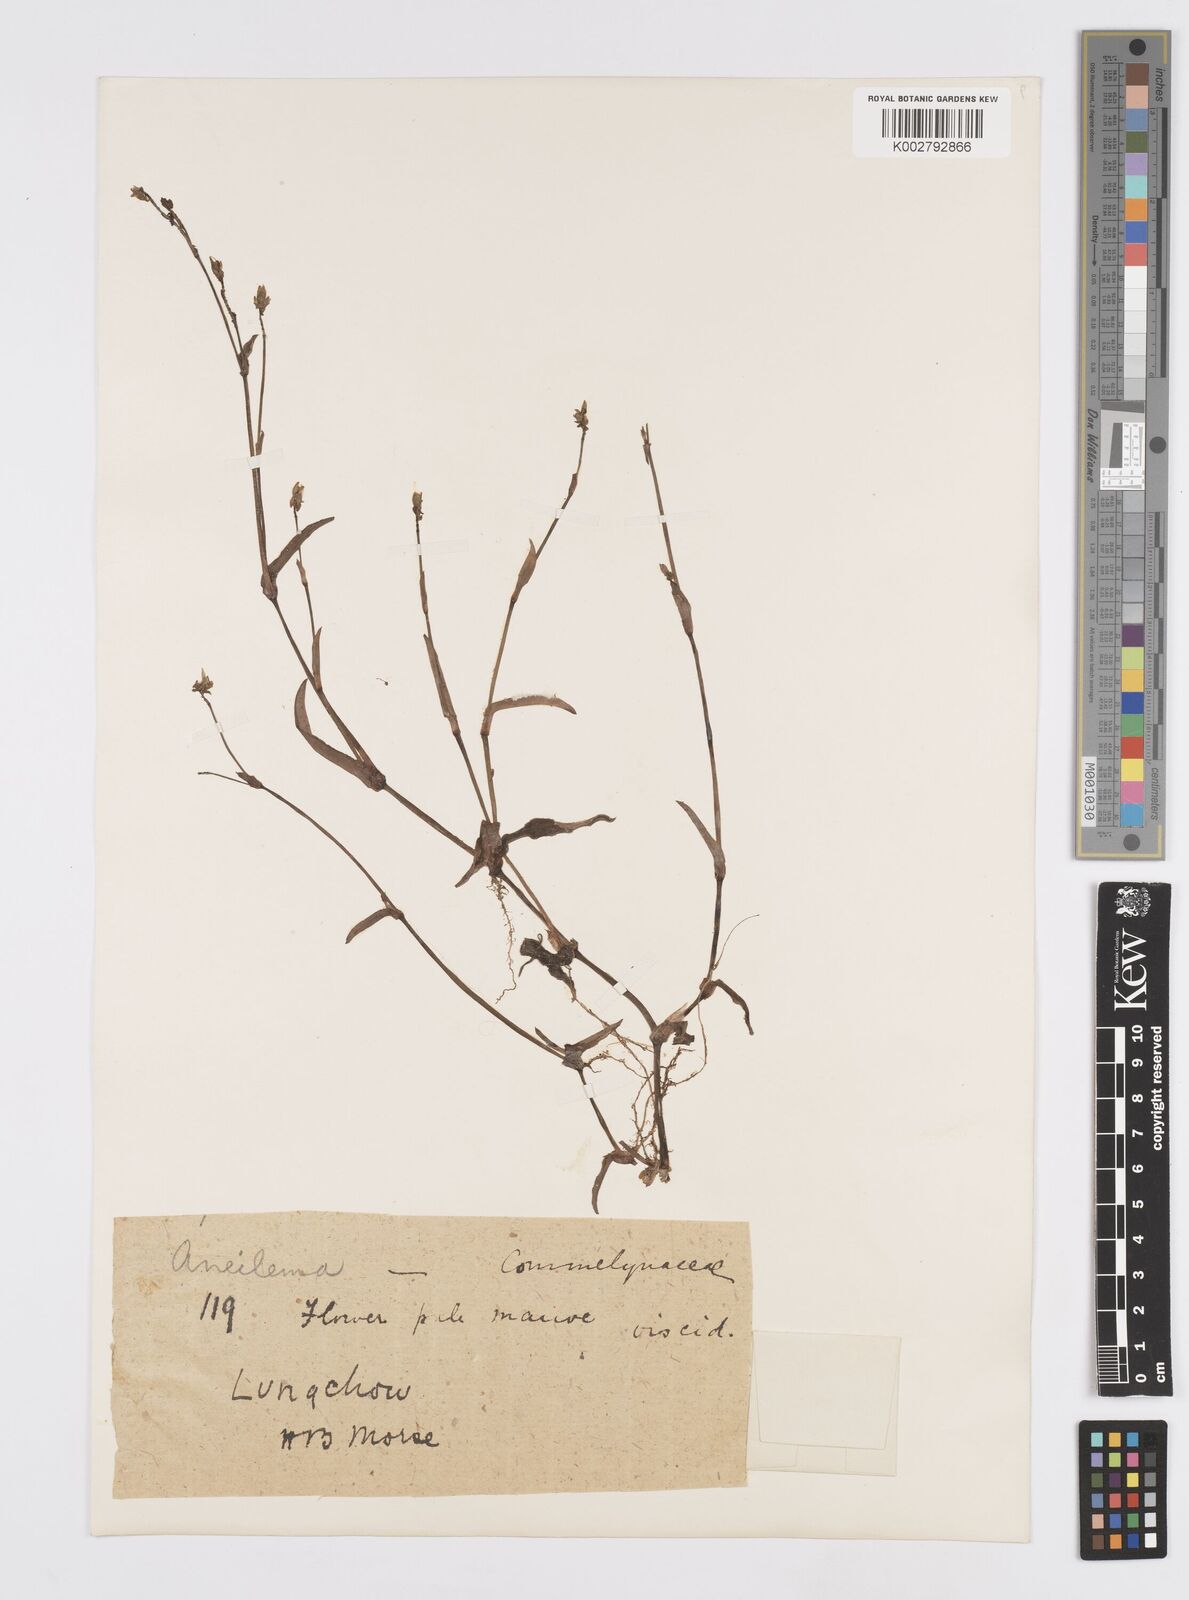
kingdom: Plantae
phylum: Tracheophyta
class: Liliopsida
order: Commelinales
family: Commelinaceae
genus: Murdannia
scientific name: Murdannia
